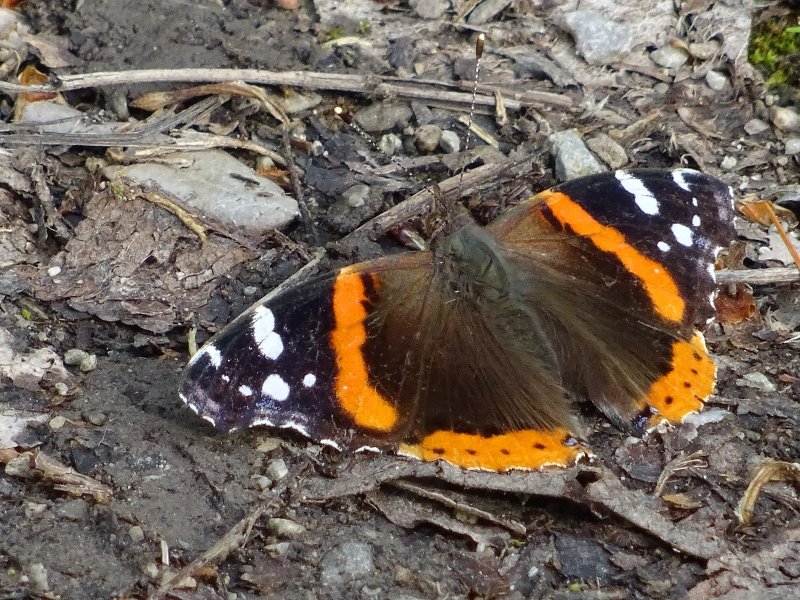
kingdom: Animalia
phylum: Arthropoda
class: Insecta
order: Lepidoptera
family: Nymphalidae
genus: Vanessa
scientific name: Vanessa atalanta
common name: Red Admiral
